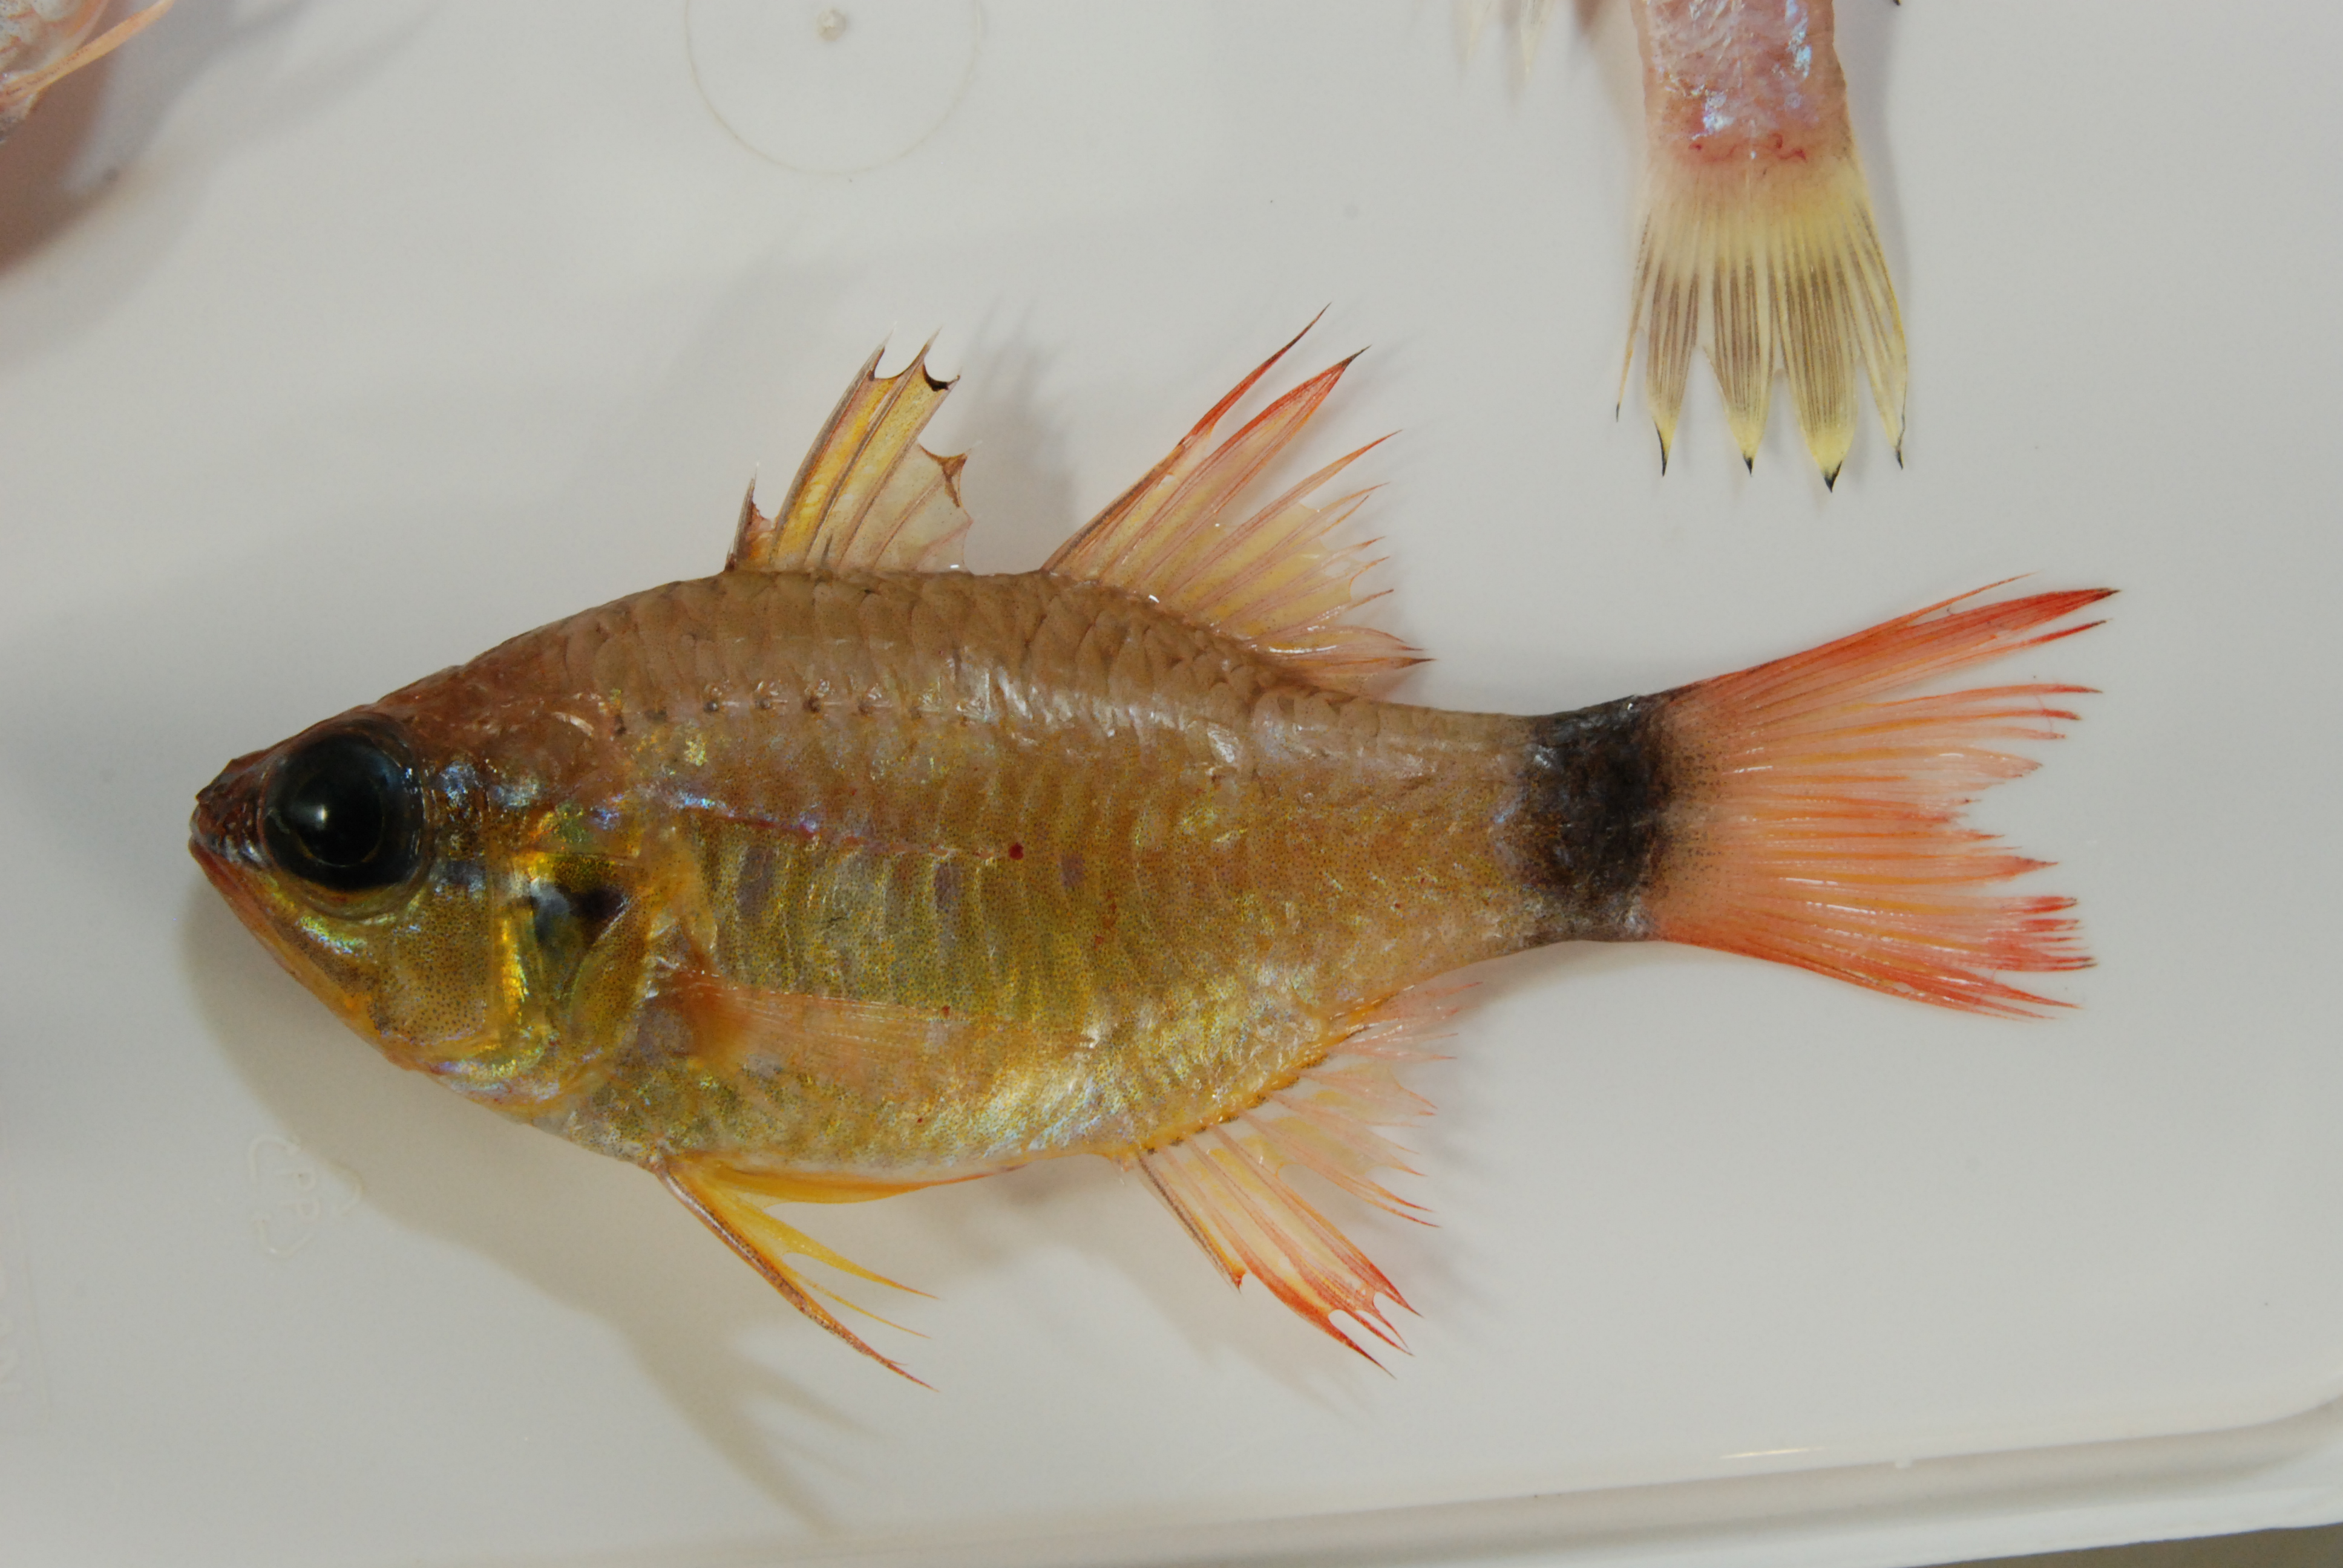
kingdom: Animalia
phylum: Chordata
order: Perciformes
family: Apogonidae
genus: Ostorhinchus
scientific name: Ostorhinchus aureus
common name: Ring-tailed cardinalfish
